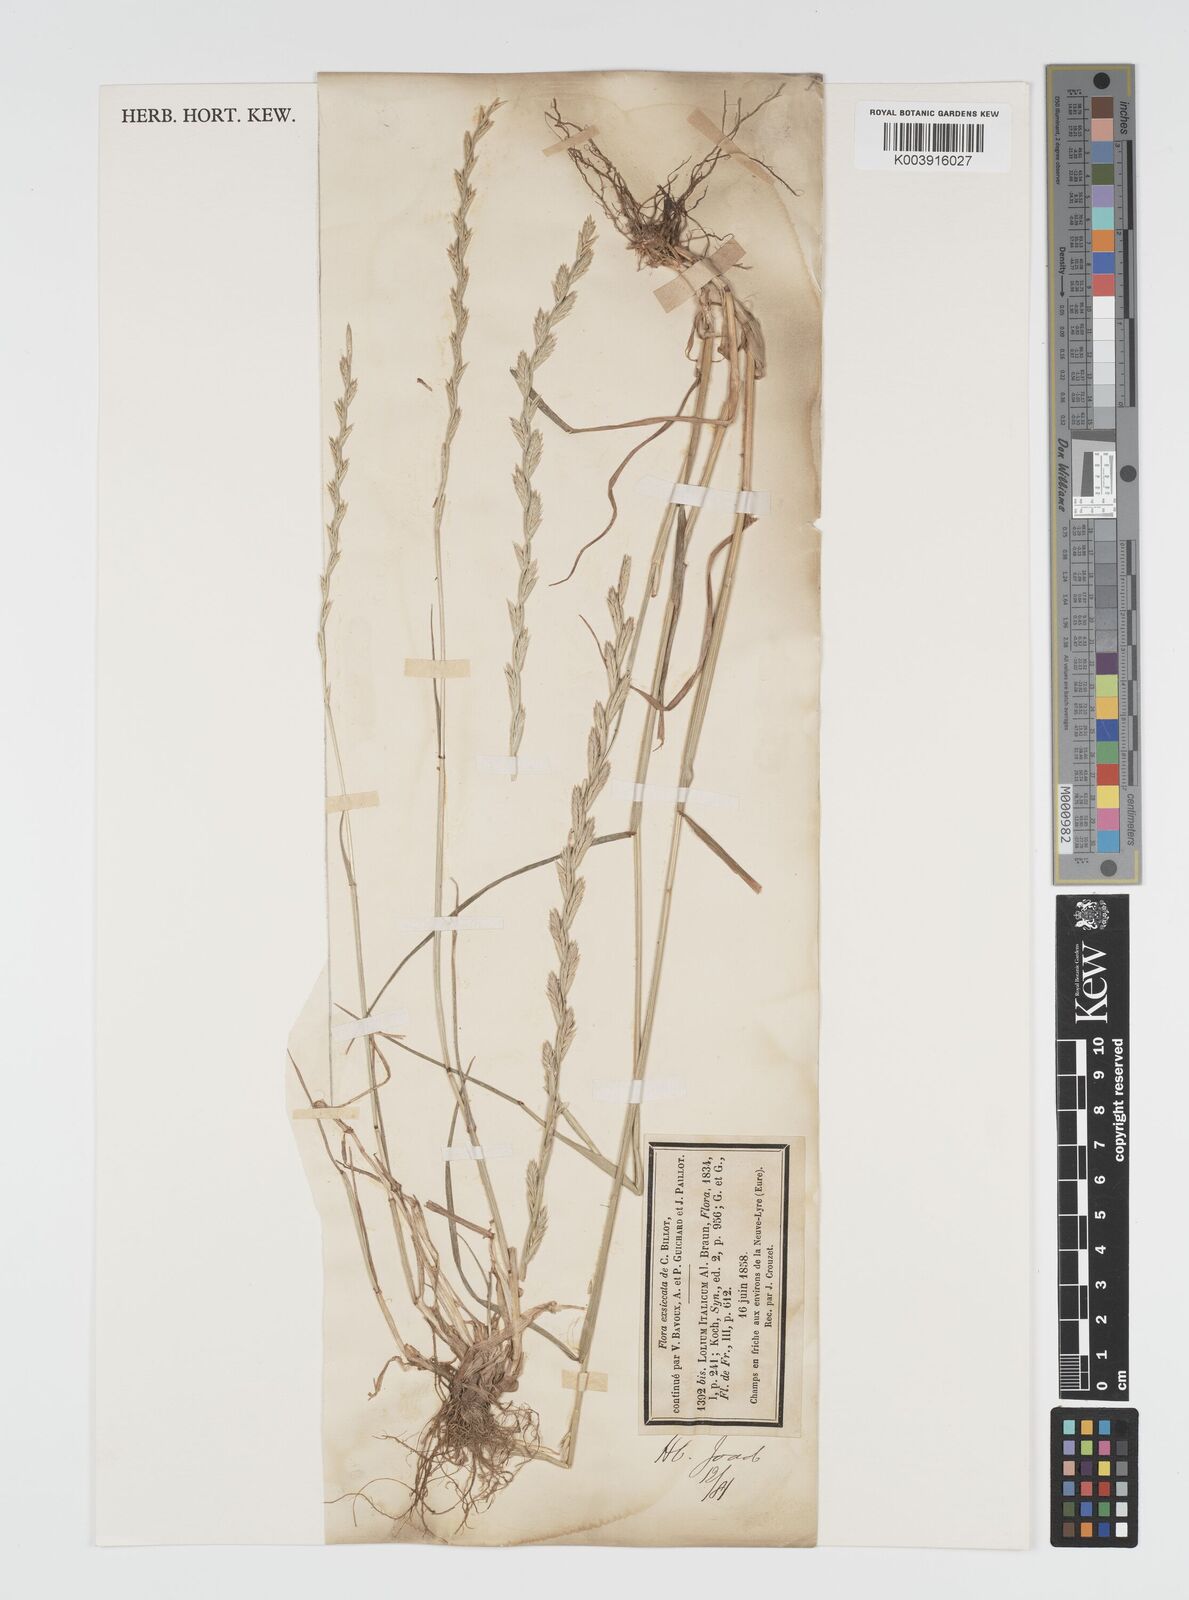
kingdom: Plantae
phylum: Tracheophyta
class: Liliopsida
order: Poales
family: Poaceae
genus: Lolium
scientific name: Lolium multiflorum
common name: Annual ryegrass
